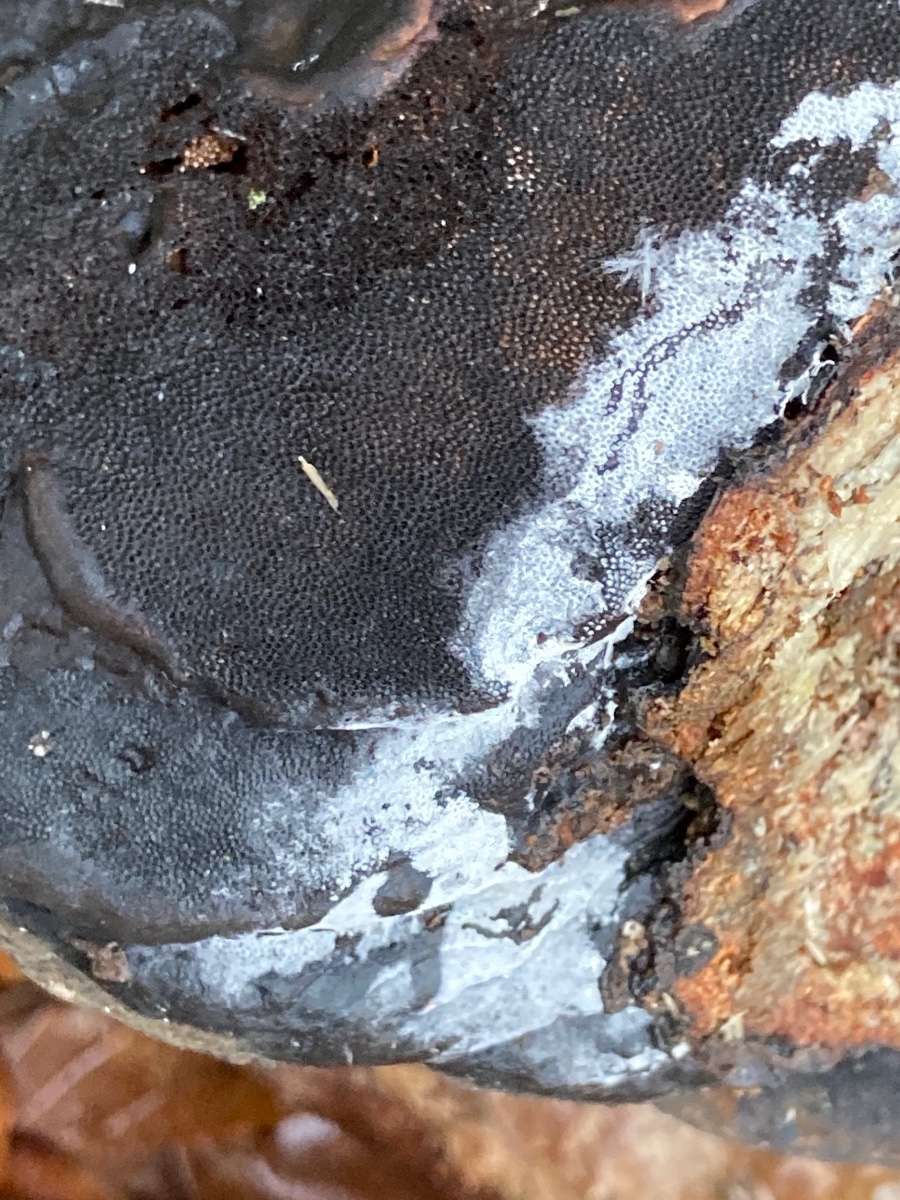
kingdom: Fungi
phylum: Basidiomycota
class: Agaricomycetes
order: Cantharellales
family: Hydnaceae
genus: Sistotrema
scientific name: Sistotrema brinkmannii
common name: bønnesporet kroneskorpe
